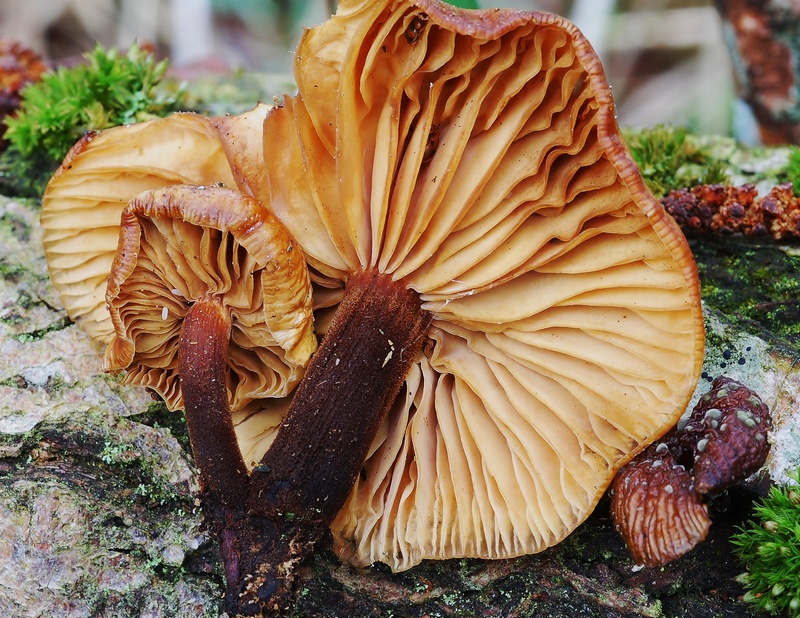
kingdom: Fungi
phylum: Basidiomycota
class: Agaricomycetes
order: Agaricales
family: Physalacriaceae
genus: Flammulina
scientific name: Flammulina elastica
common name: pile-fløjlsfod
